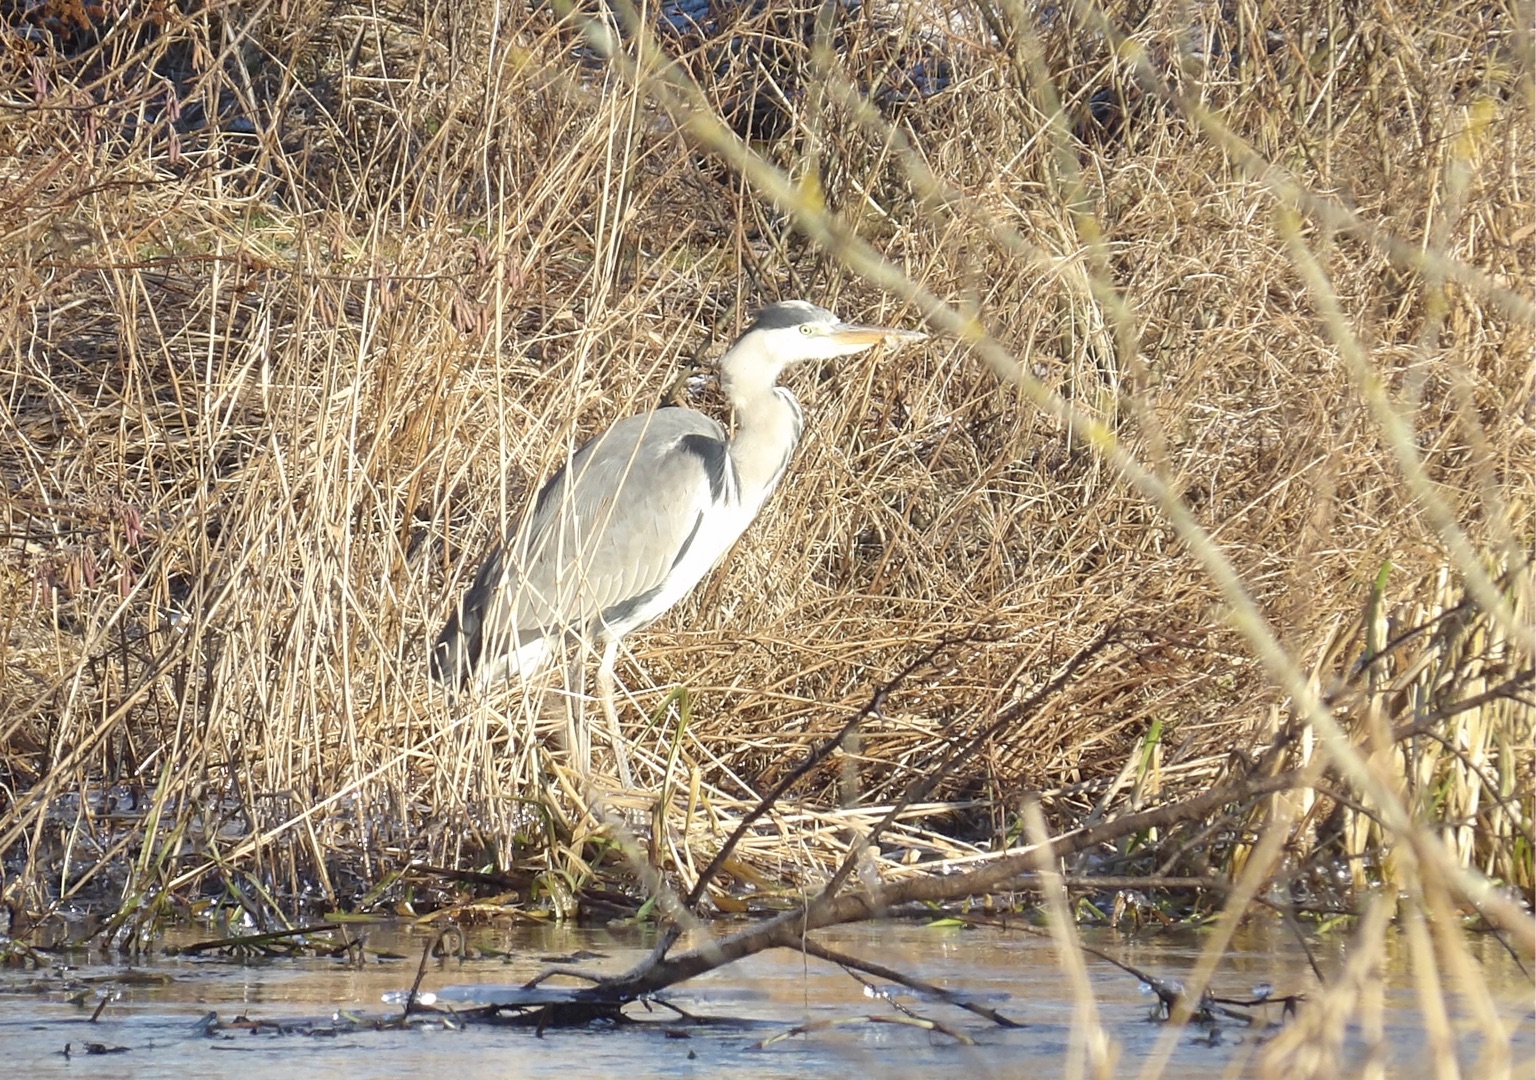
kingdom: Animalia
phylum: Chordata
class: Aves
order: Pelecaniformes
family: Ardeidae
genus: Ardea
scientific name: Ardea cinerea
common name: Fiskehejre
